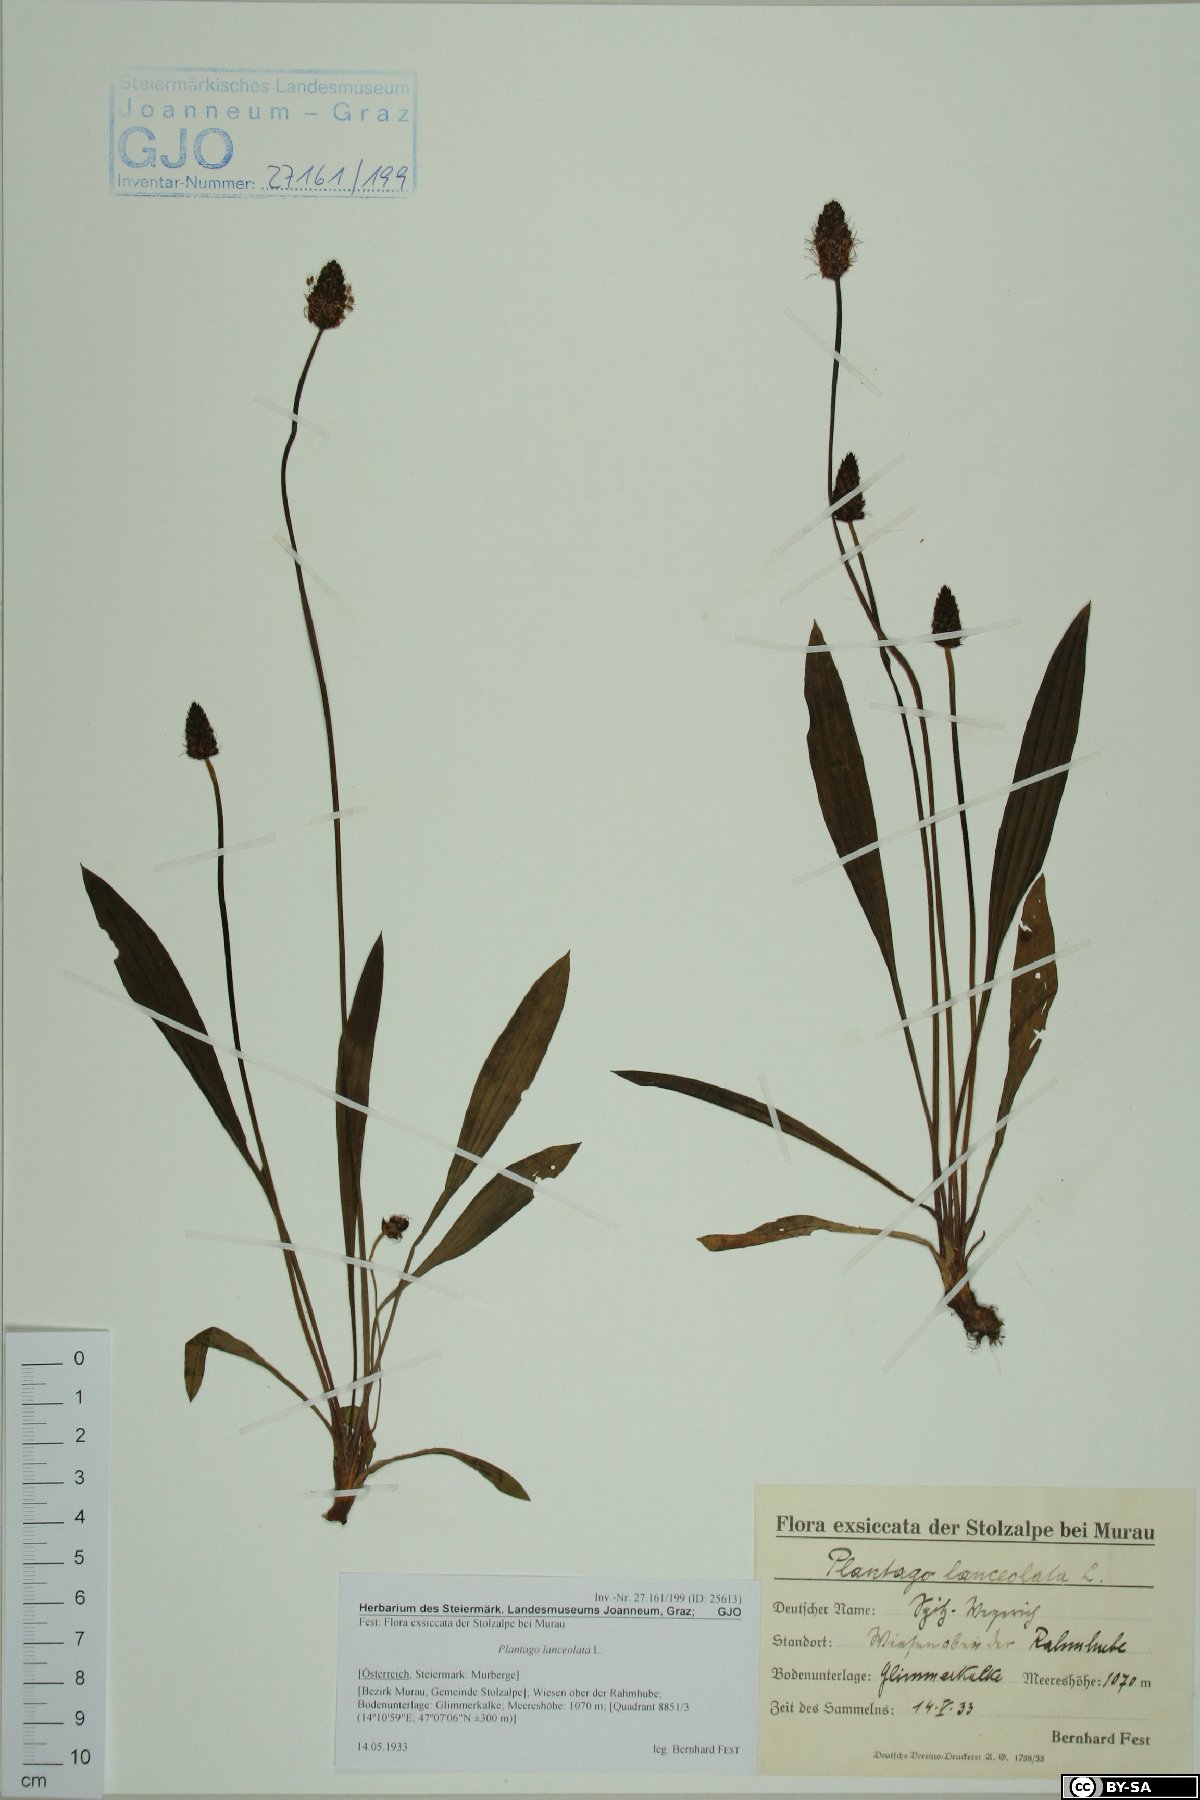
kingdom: Plantae
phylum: Tracheophyta
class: Magnoliopsida
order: Lamiales
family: Plantaginaceae
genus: Plantago
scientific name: Plantago lanceolata
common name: Ribwort plantain
